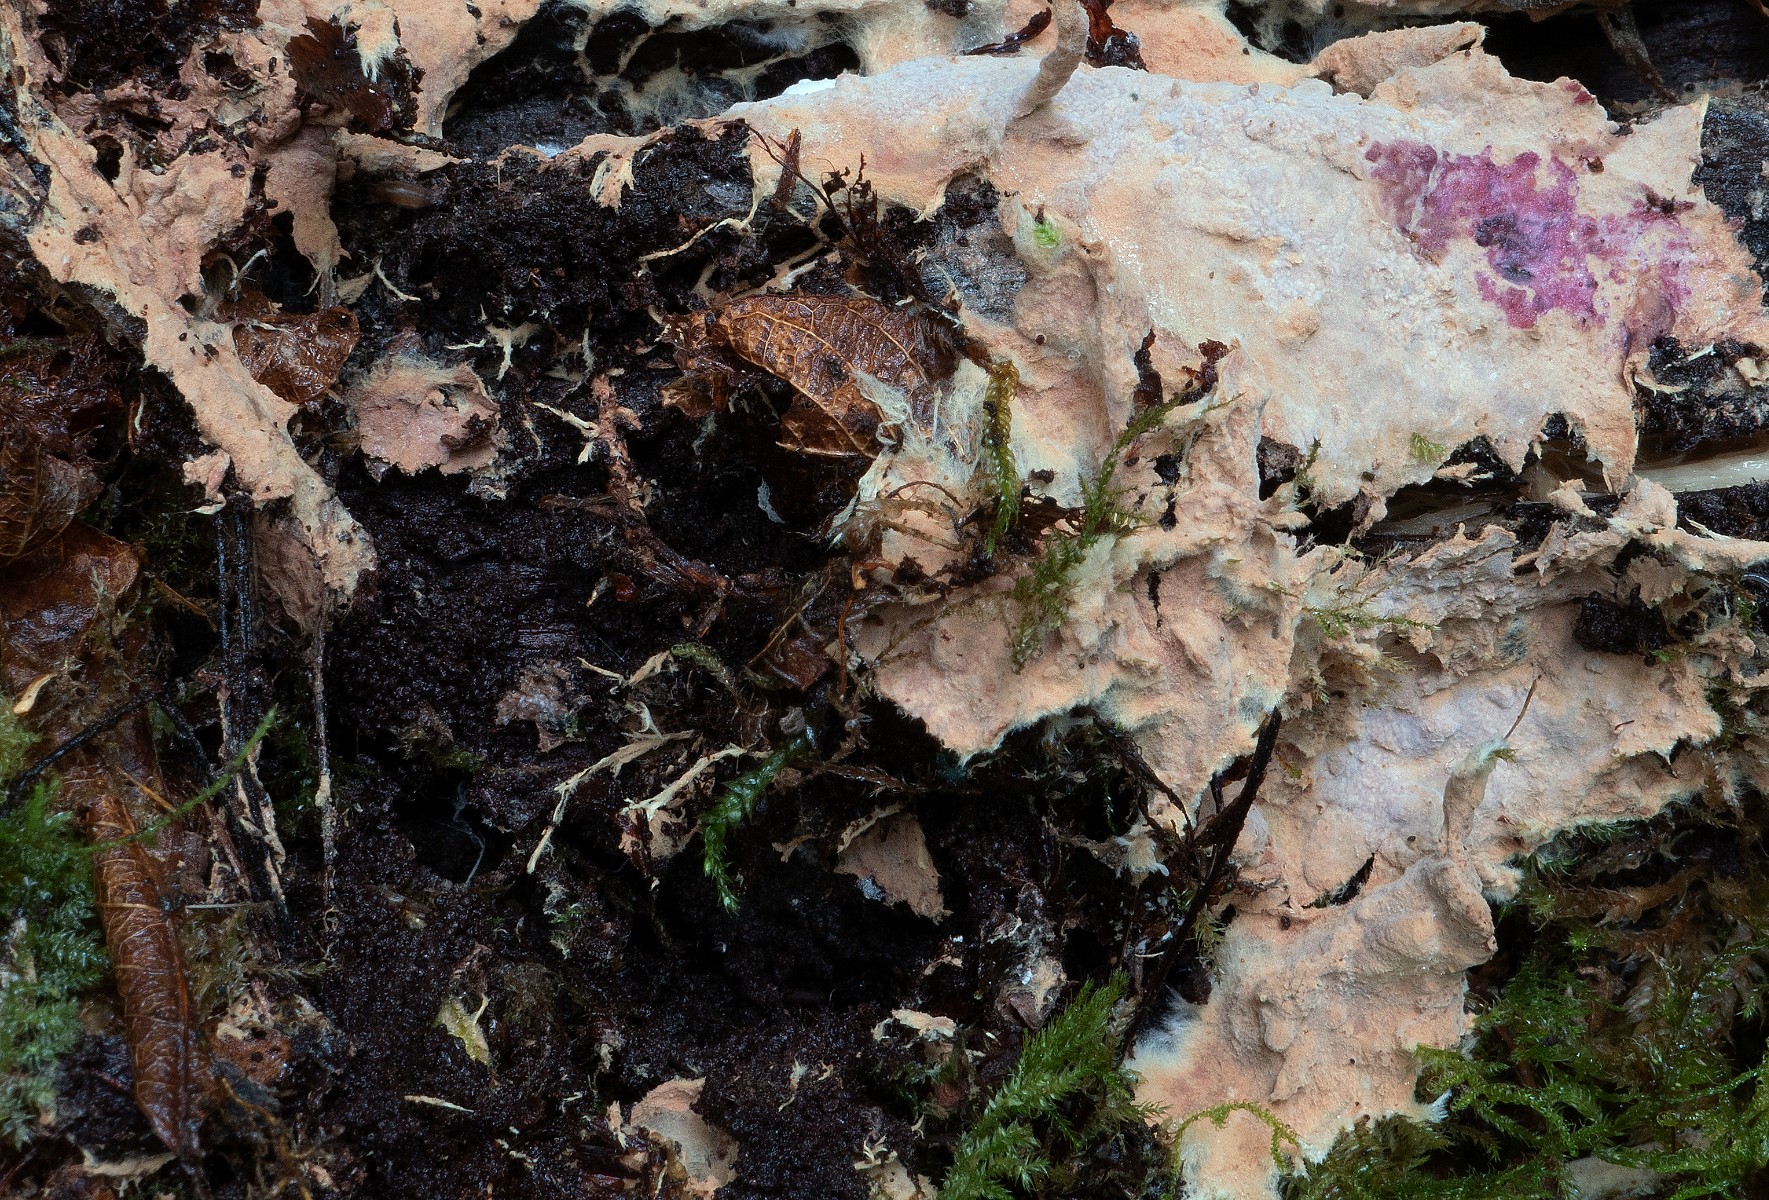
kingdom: Fungi
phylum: Basidiomycota
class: Agaricomycetes
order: Polyporales
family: Phanerochaetaceae
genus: Rhizochaete
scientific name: Rhizochaete radicata
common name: orangebrun randtråd
